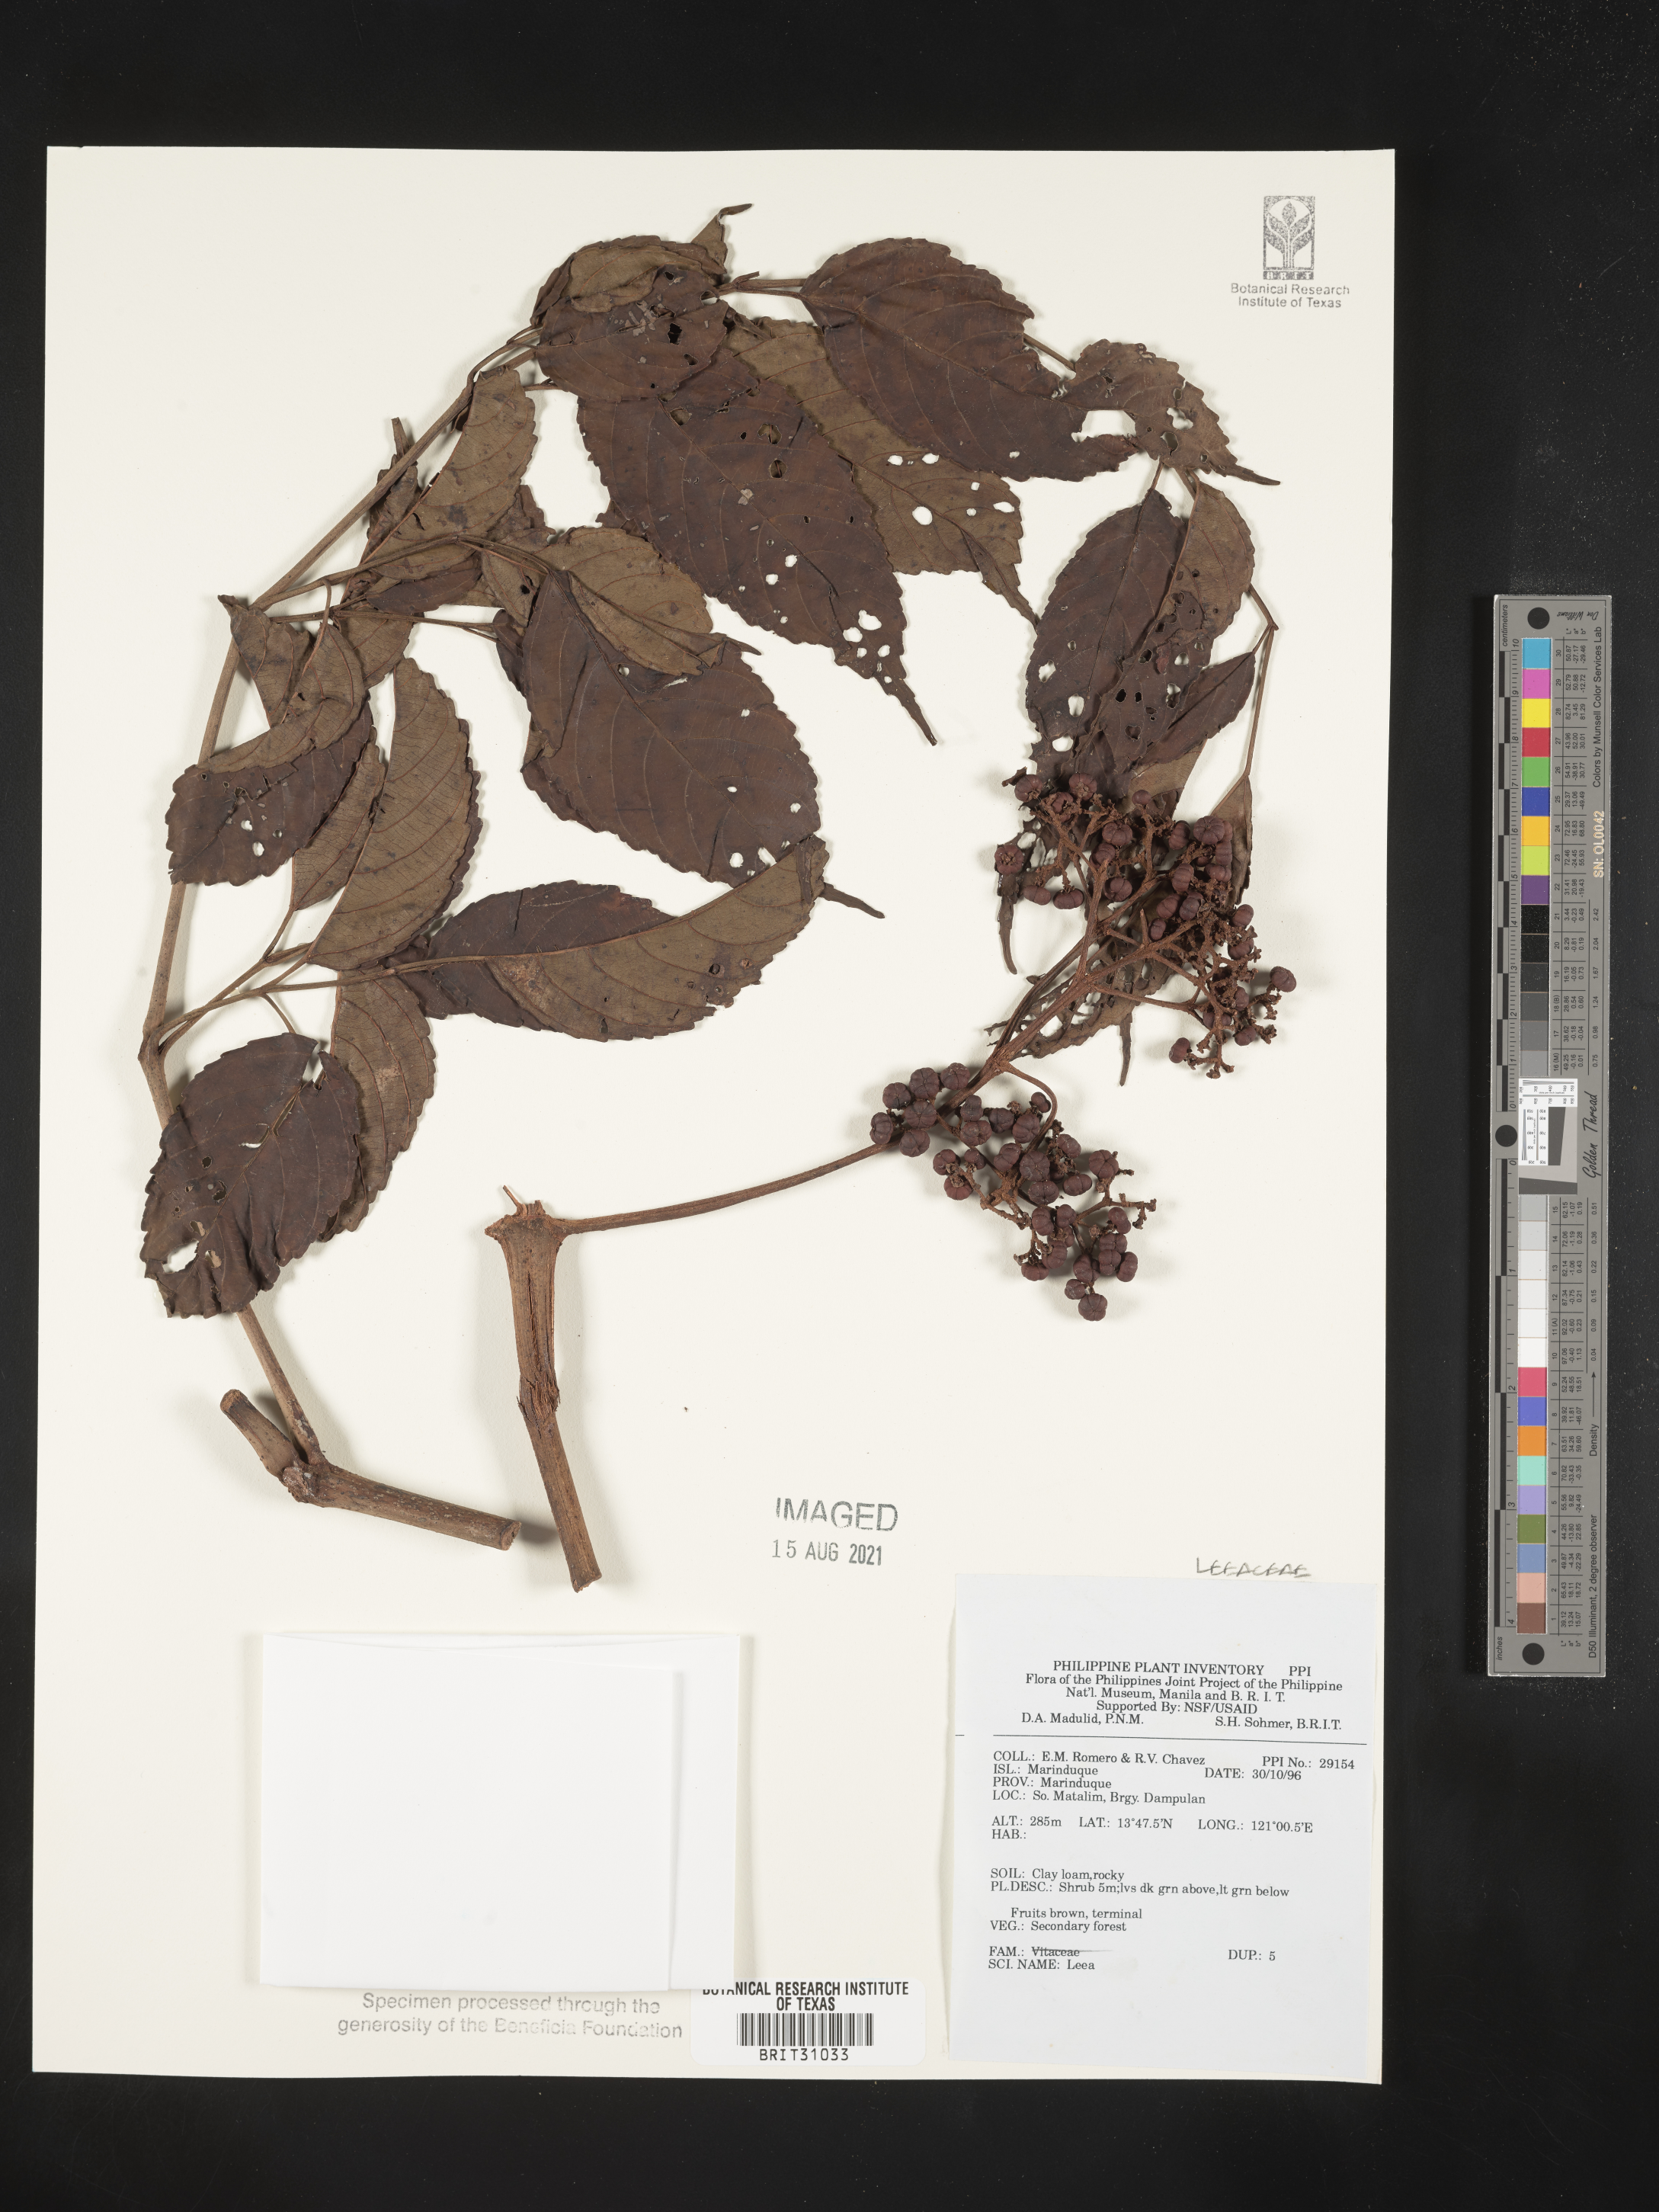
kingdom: Plantae
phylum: Tracheophyta
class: Magnoliopsida
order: Vitales
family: Vitaceae
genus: Leea
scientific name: Leea
